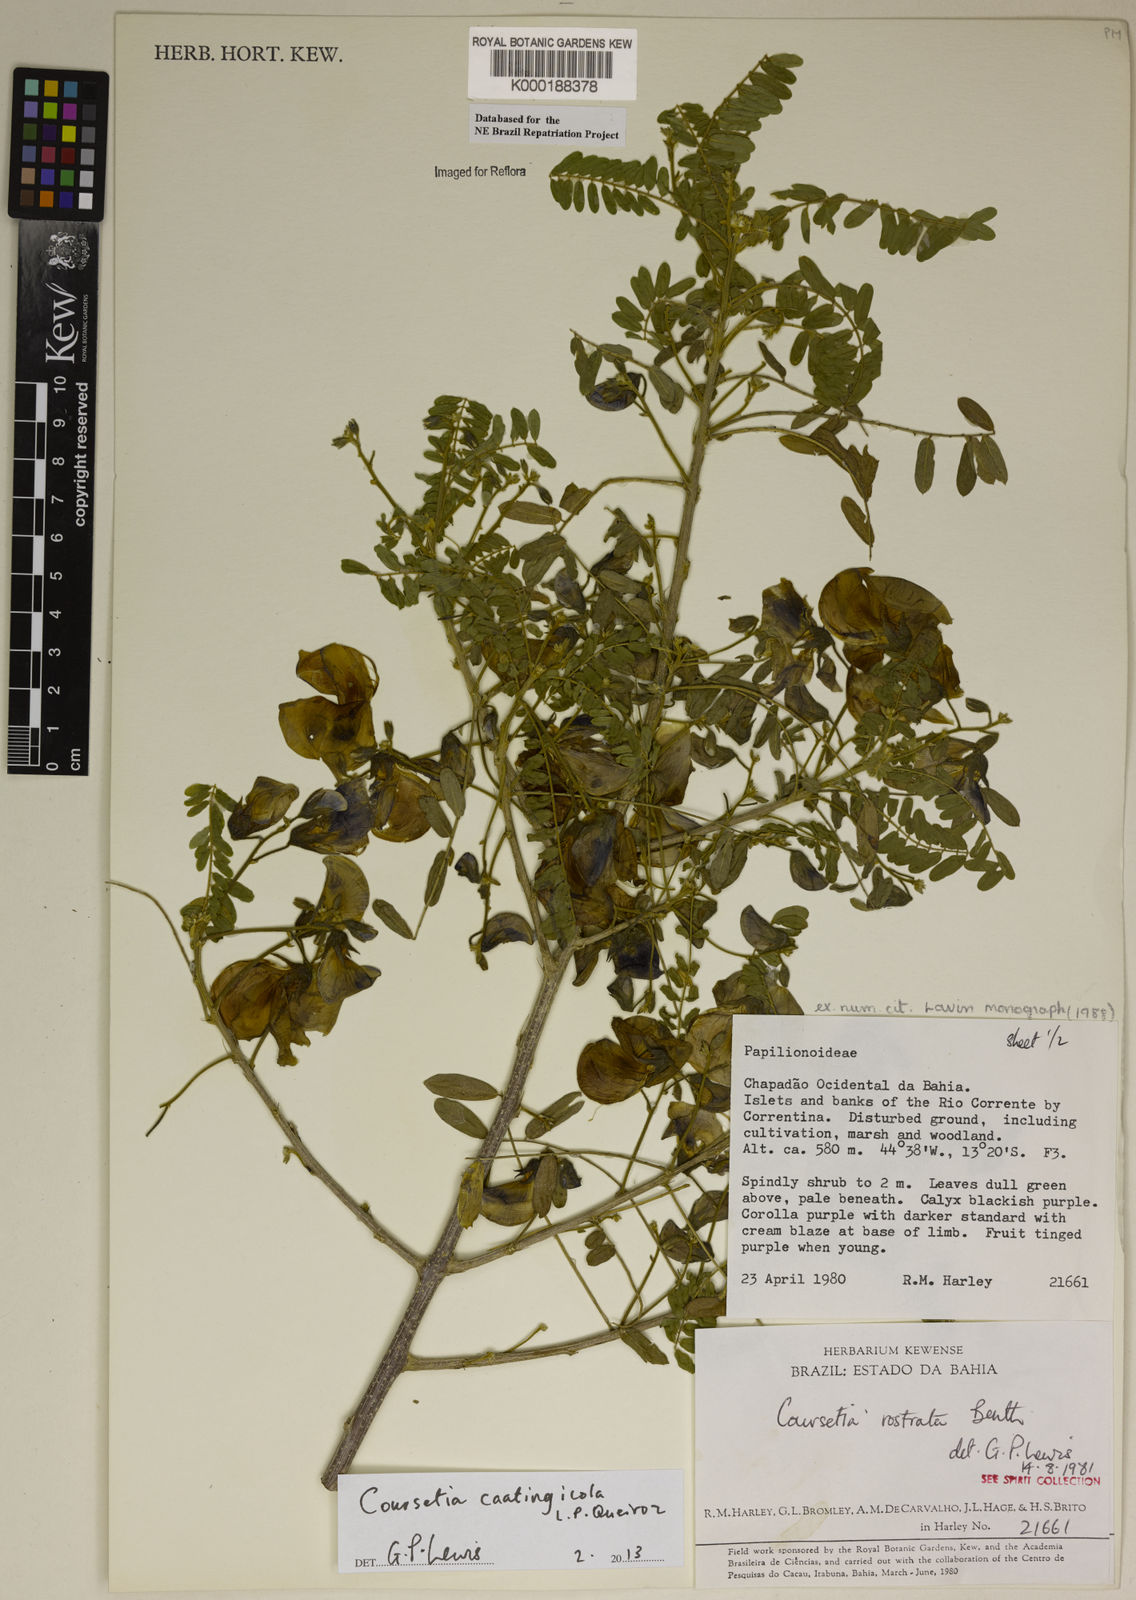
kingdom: Plantae
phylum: Tracheophyta
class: Magnoliopsida
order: Fabales
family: Fabaceae
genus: Coursetia
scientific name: Coursetia rostrata
